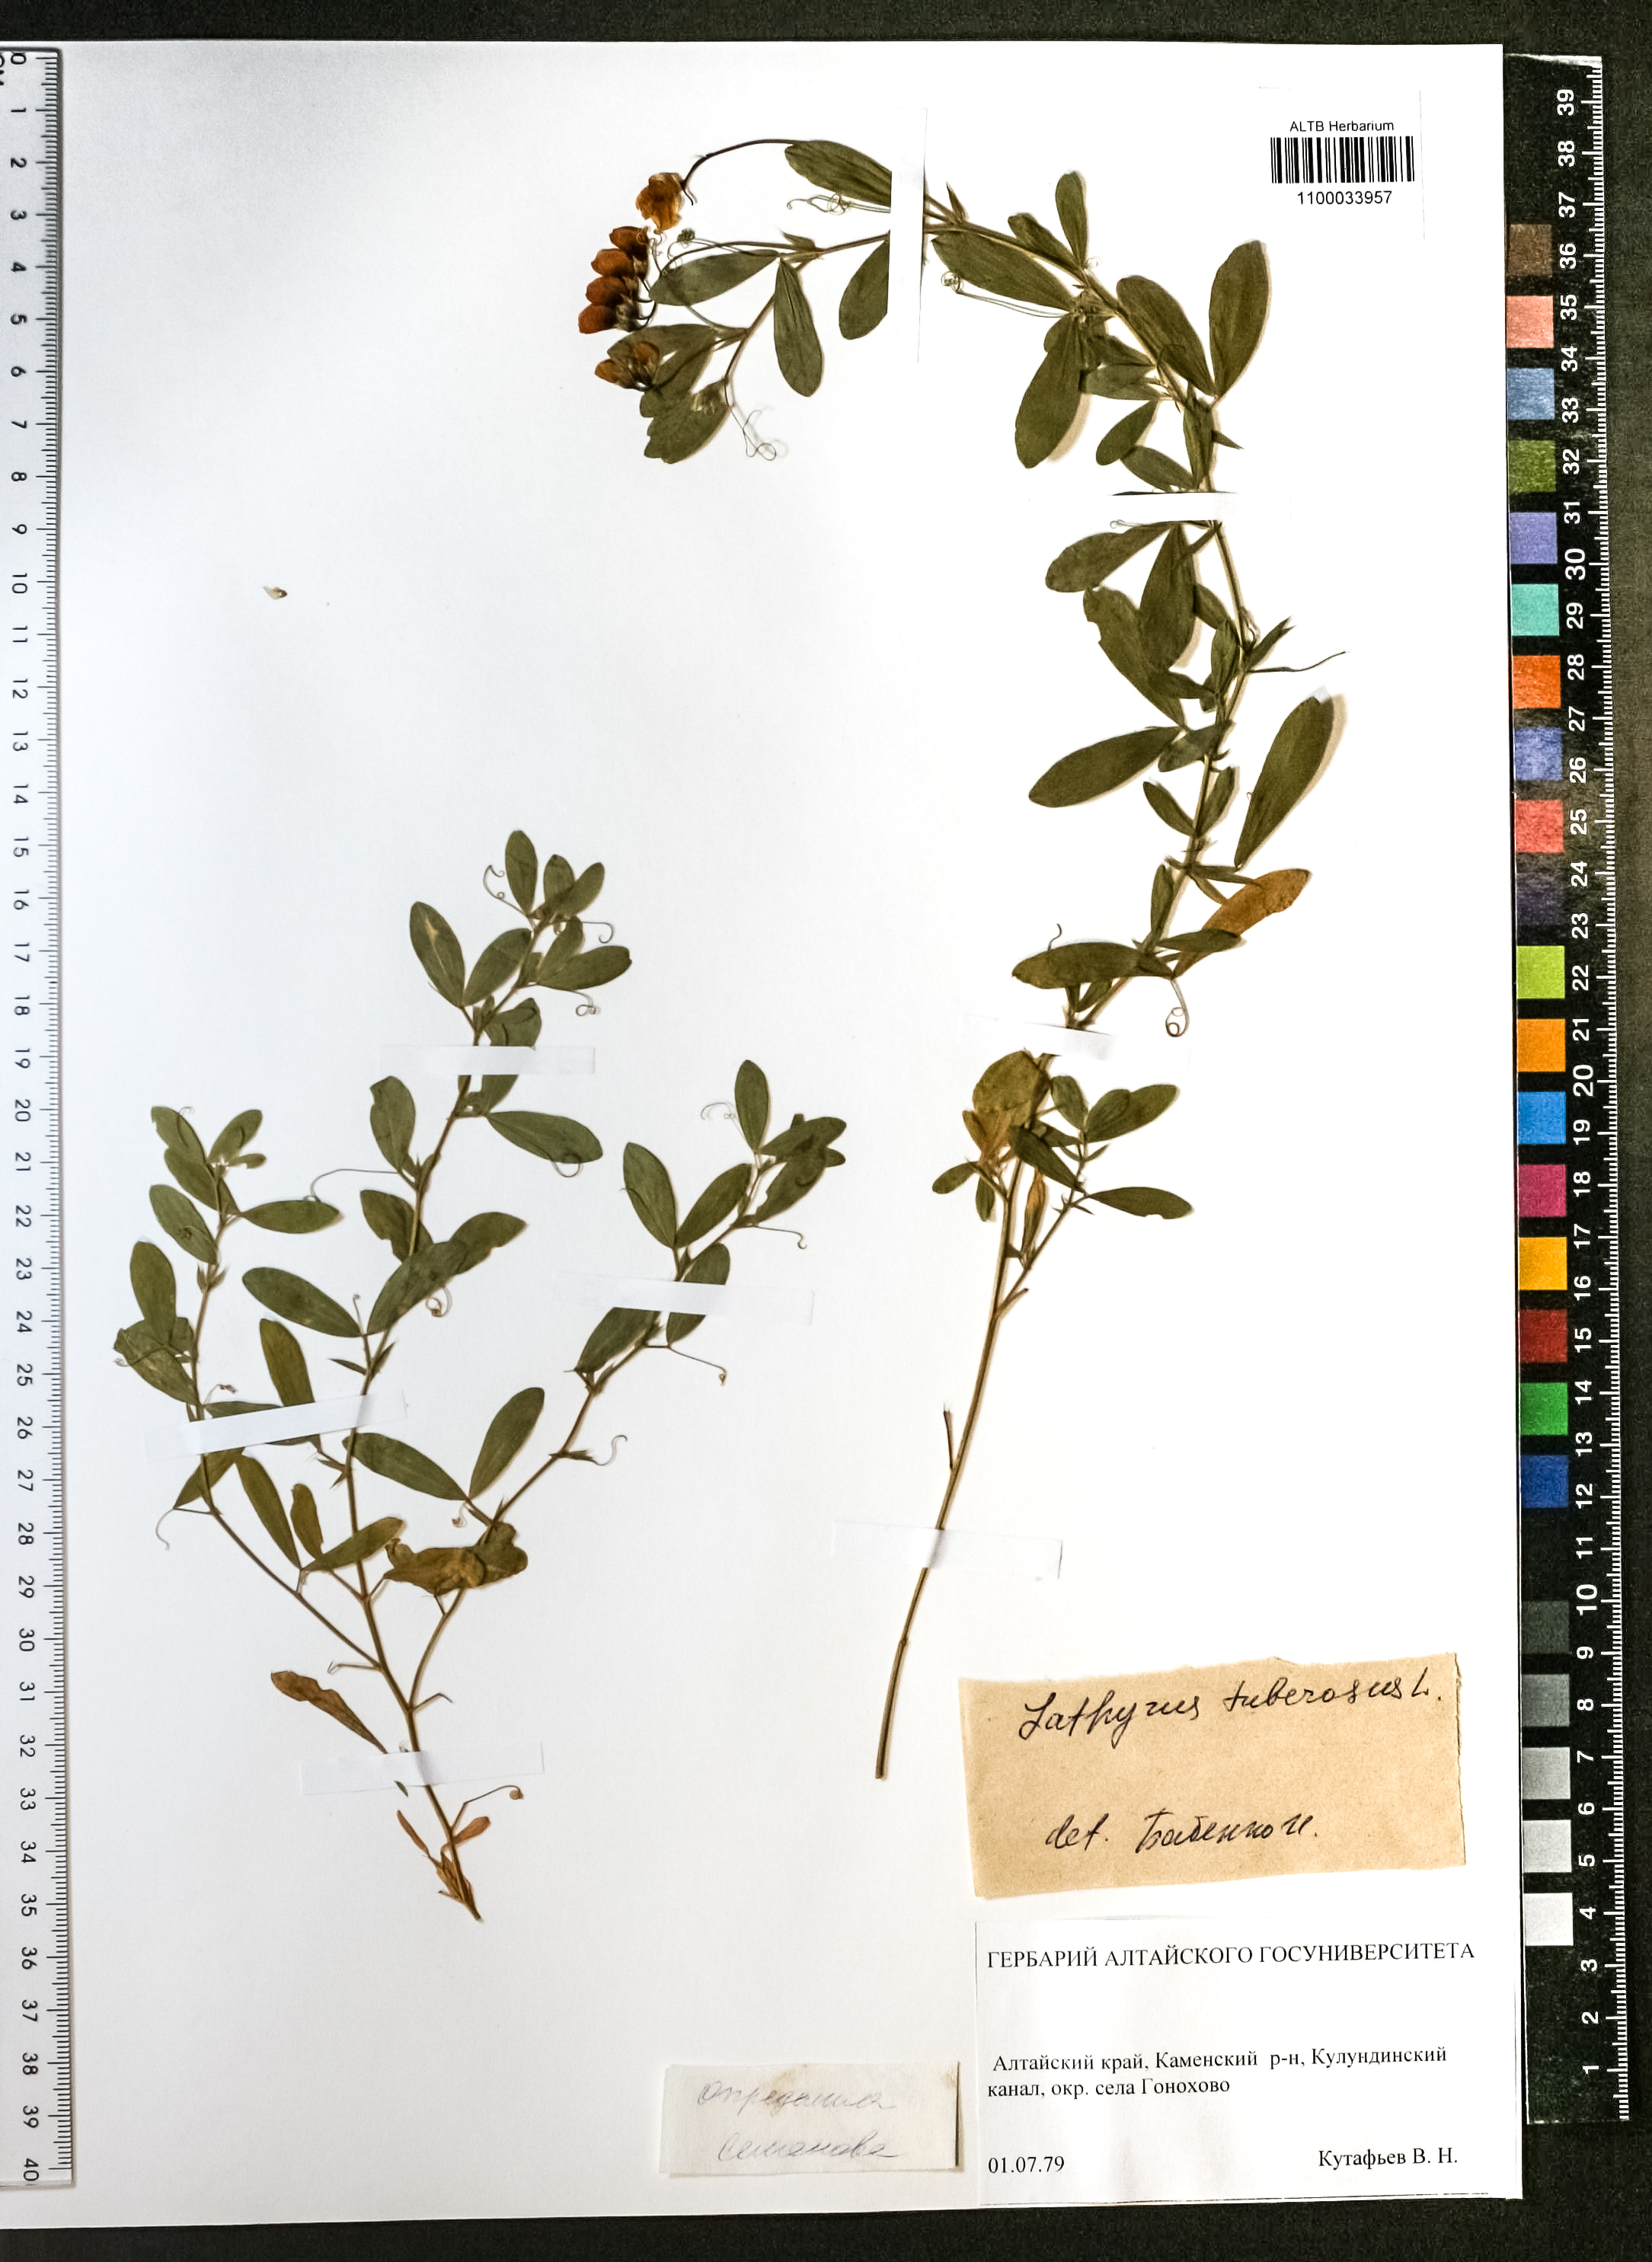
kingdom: Plantae
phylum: Tracheophyta
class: Magnoliopsida
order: Fabales
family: Fabaceae
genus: Lathyrus
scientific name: Lathyrus tuberosus
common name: Tuberous pea
